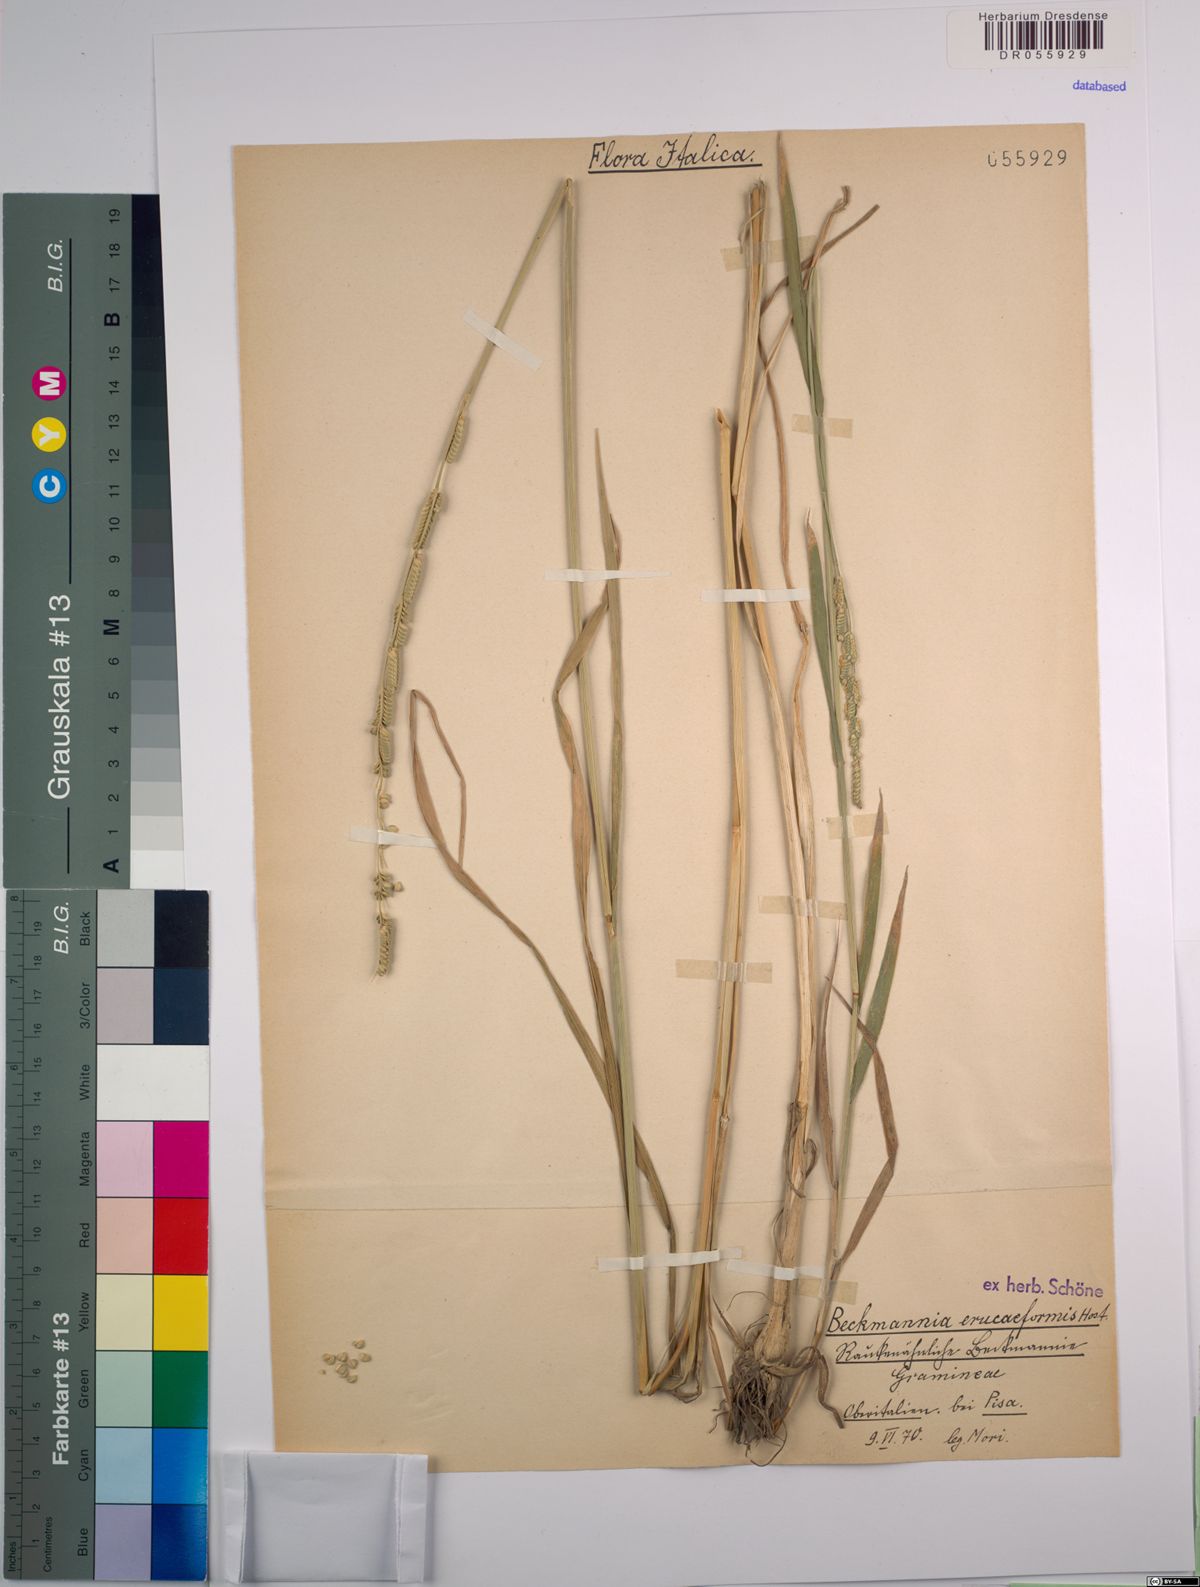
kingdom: Plantae
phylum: Tracheophyta
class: Liliopsida
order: Poales
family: Poaceae
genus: Beckmannia
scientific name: Beckmannia eruciformis
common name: European slough-grass
